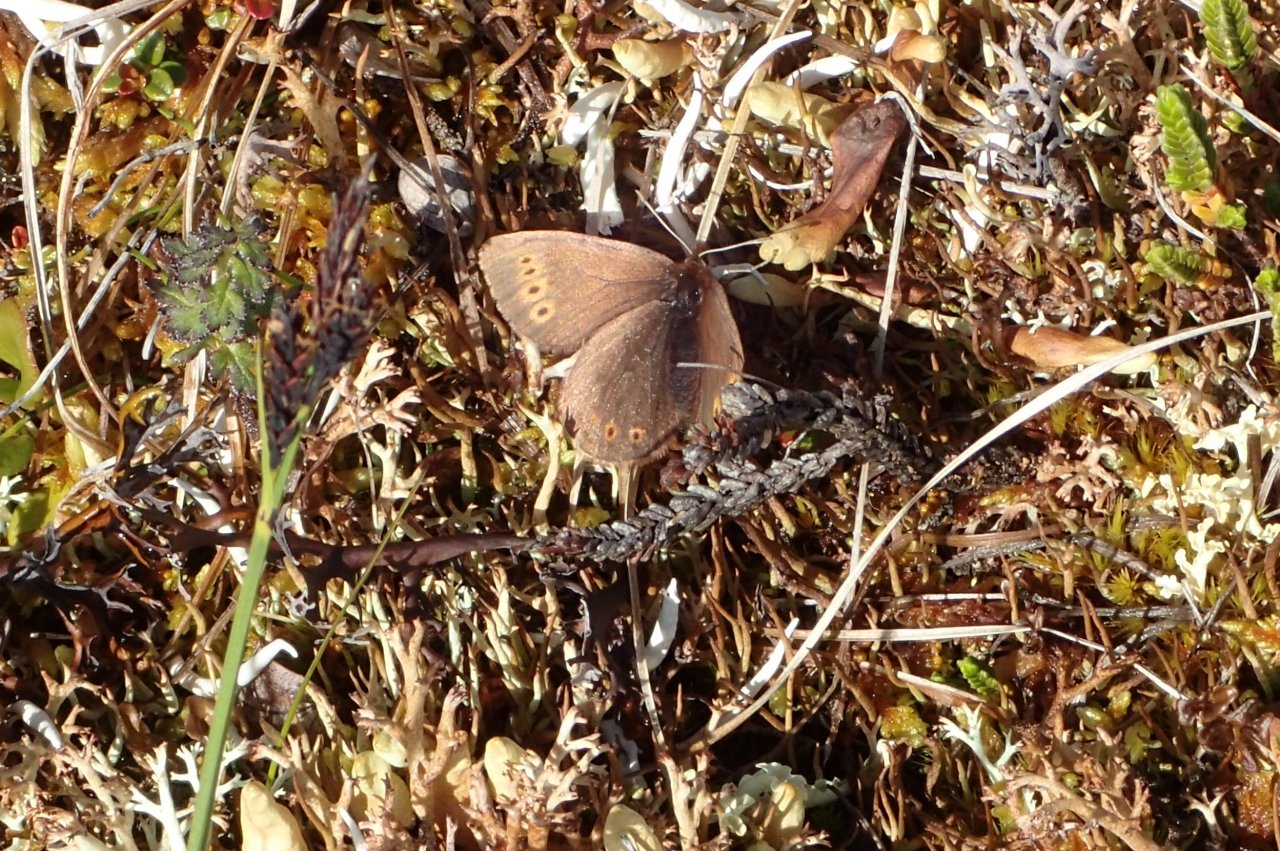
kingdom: Animalia
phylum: Arthropoda
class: Insecta
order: Lepidoptera
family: Nymphalidae
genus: Erebia
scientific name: Erebia youngi
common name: Four-dotted Alpine
